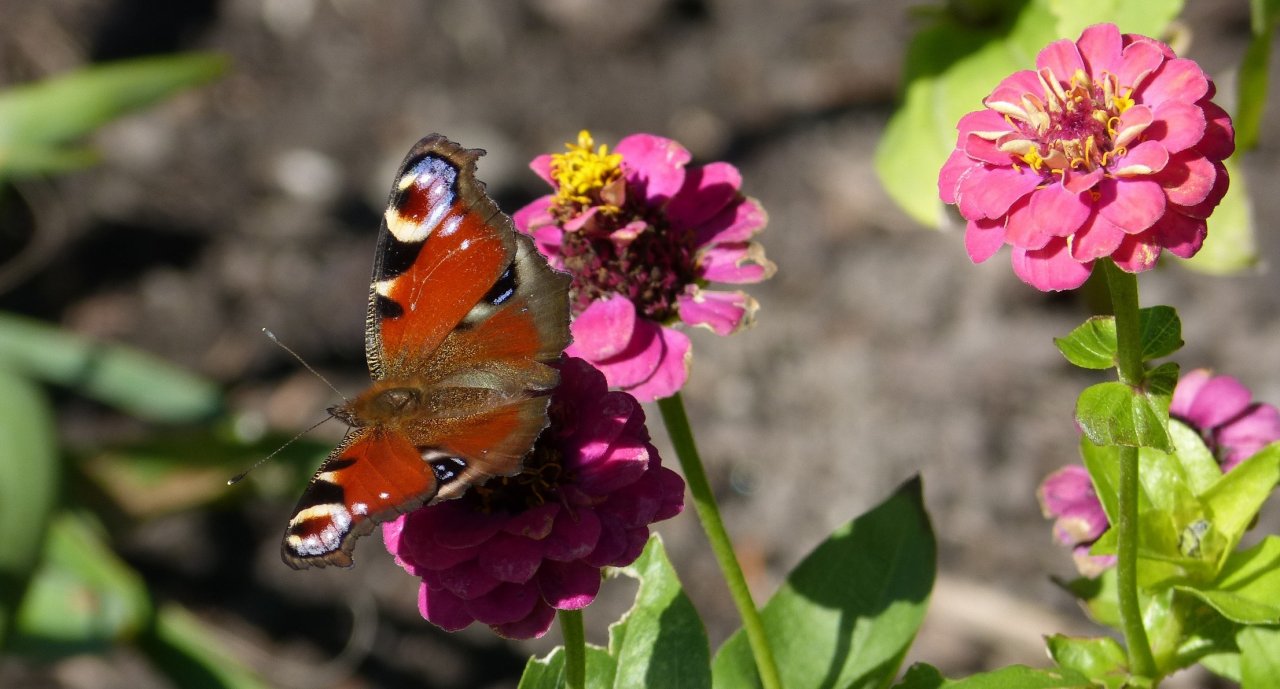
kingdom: Animalia
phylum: Arthropoda
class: Insecta
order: Lepidoptera
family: Nymphalidae
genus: Aglais
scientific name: Aglais io
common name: European Peacock
